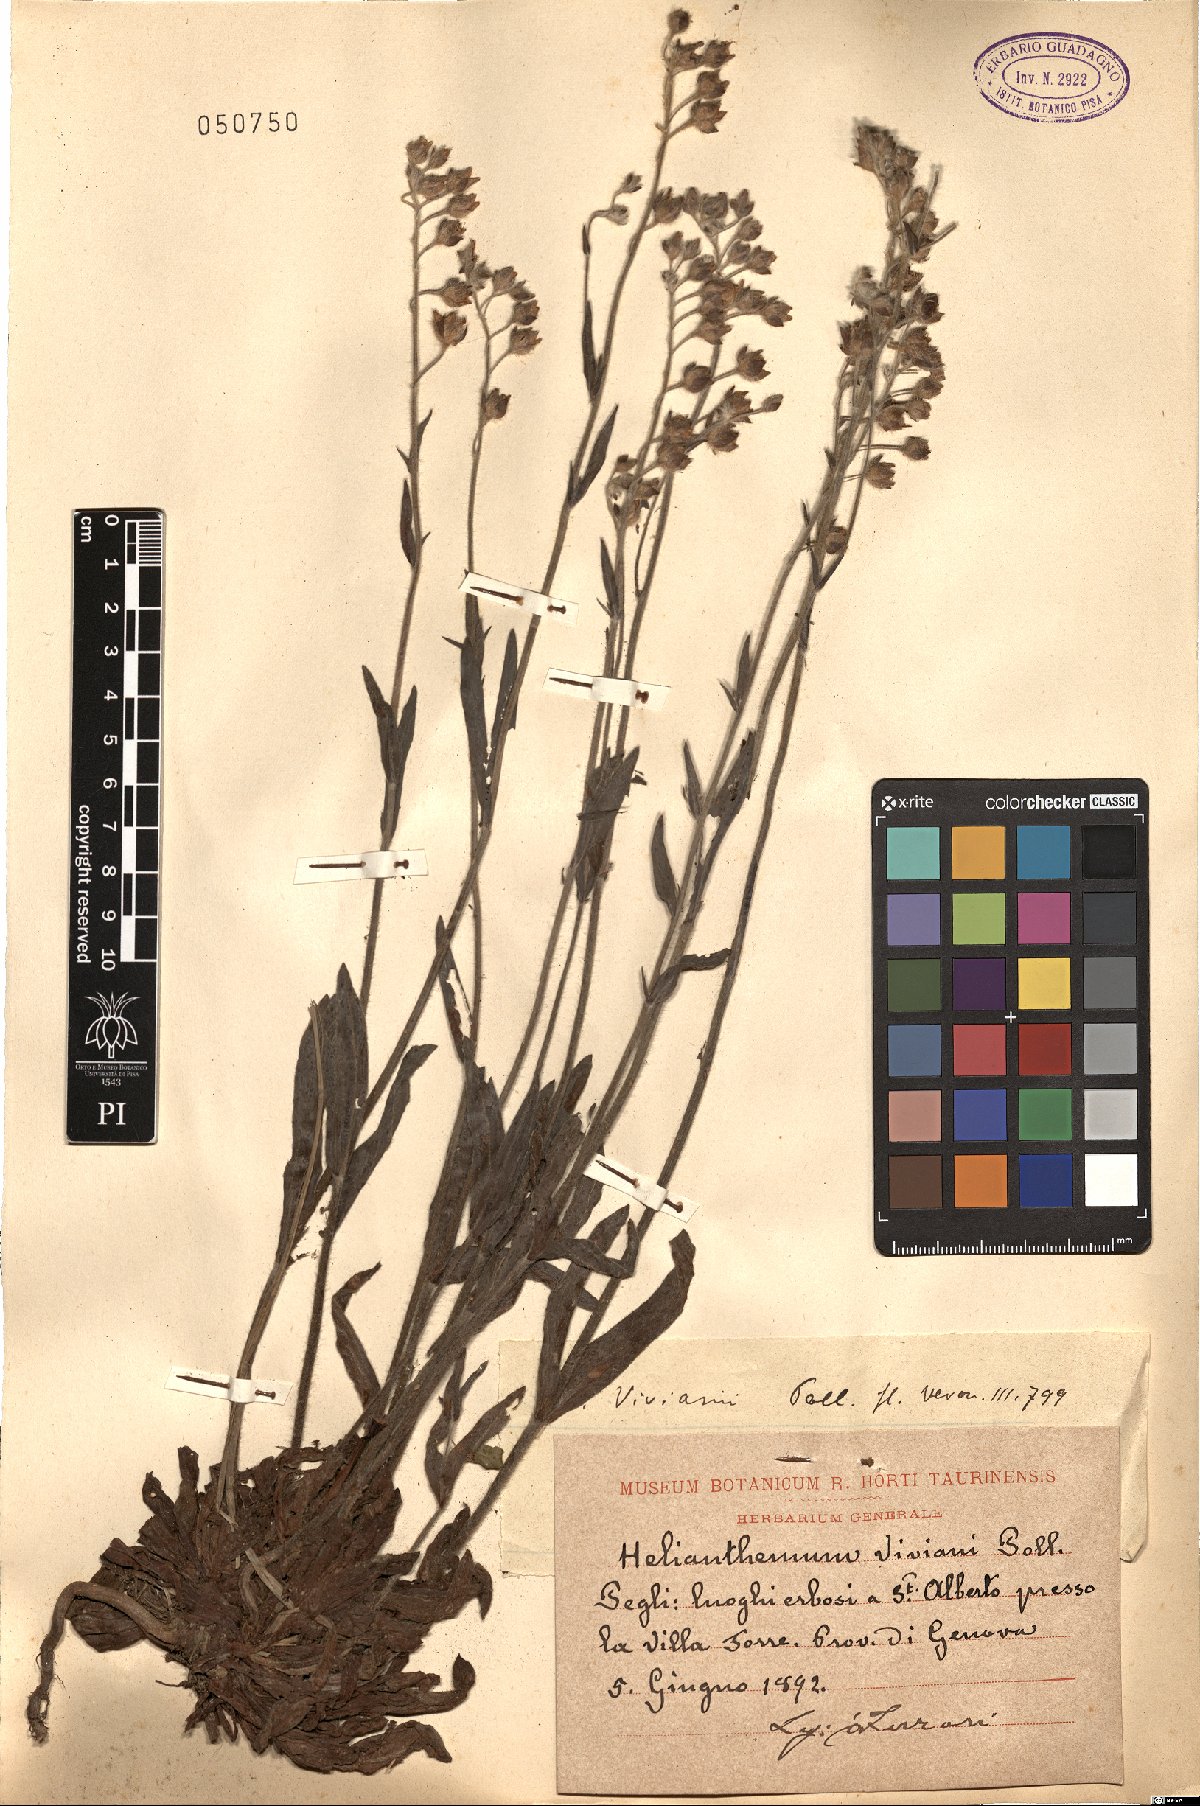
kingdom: Plantae
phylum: Tracheophyta
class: Magnoliopsida
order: Malvales
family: Cistaceae
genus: Tuberaria
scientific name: Tuberaria acuminata
